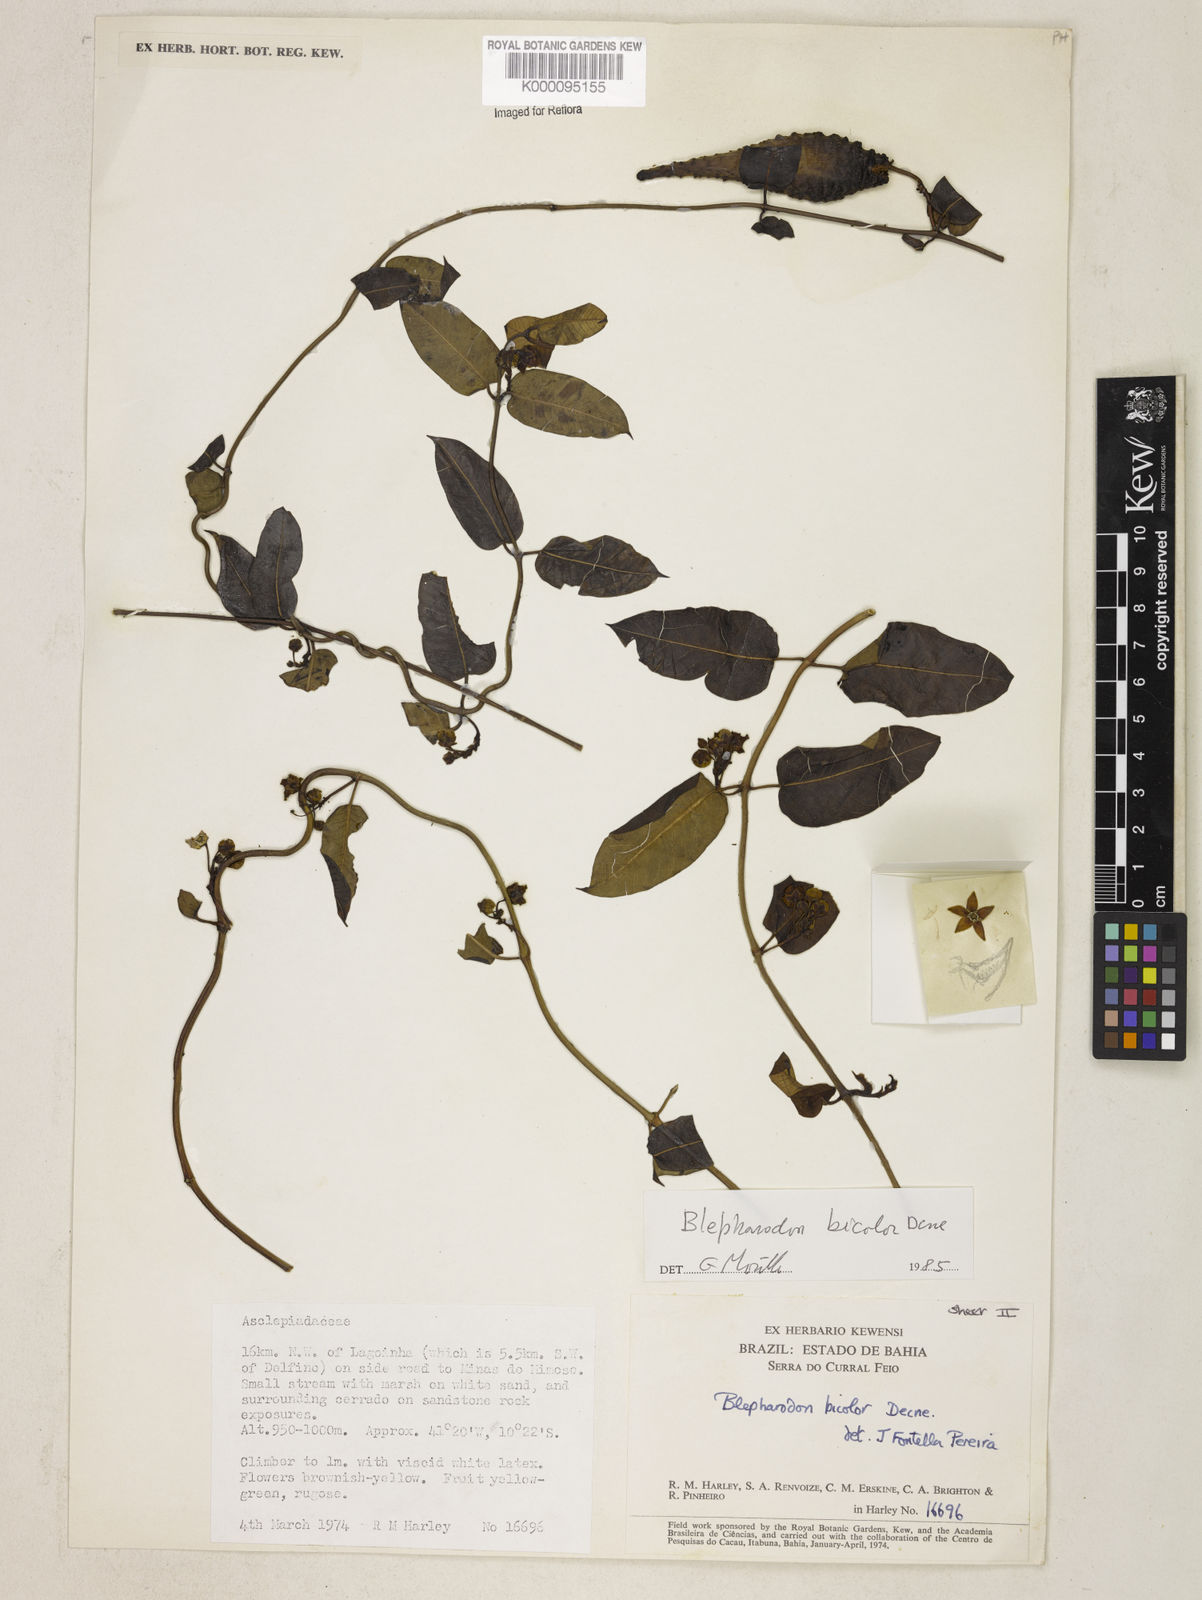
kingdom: Plantae
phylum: Tracheophyta
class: Magnoliopsida
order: Gentianales
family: Apocynaceae
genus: Blepharodon
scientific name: Blepharodon bicolor
